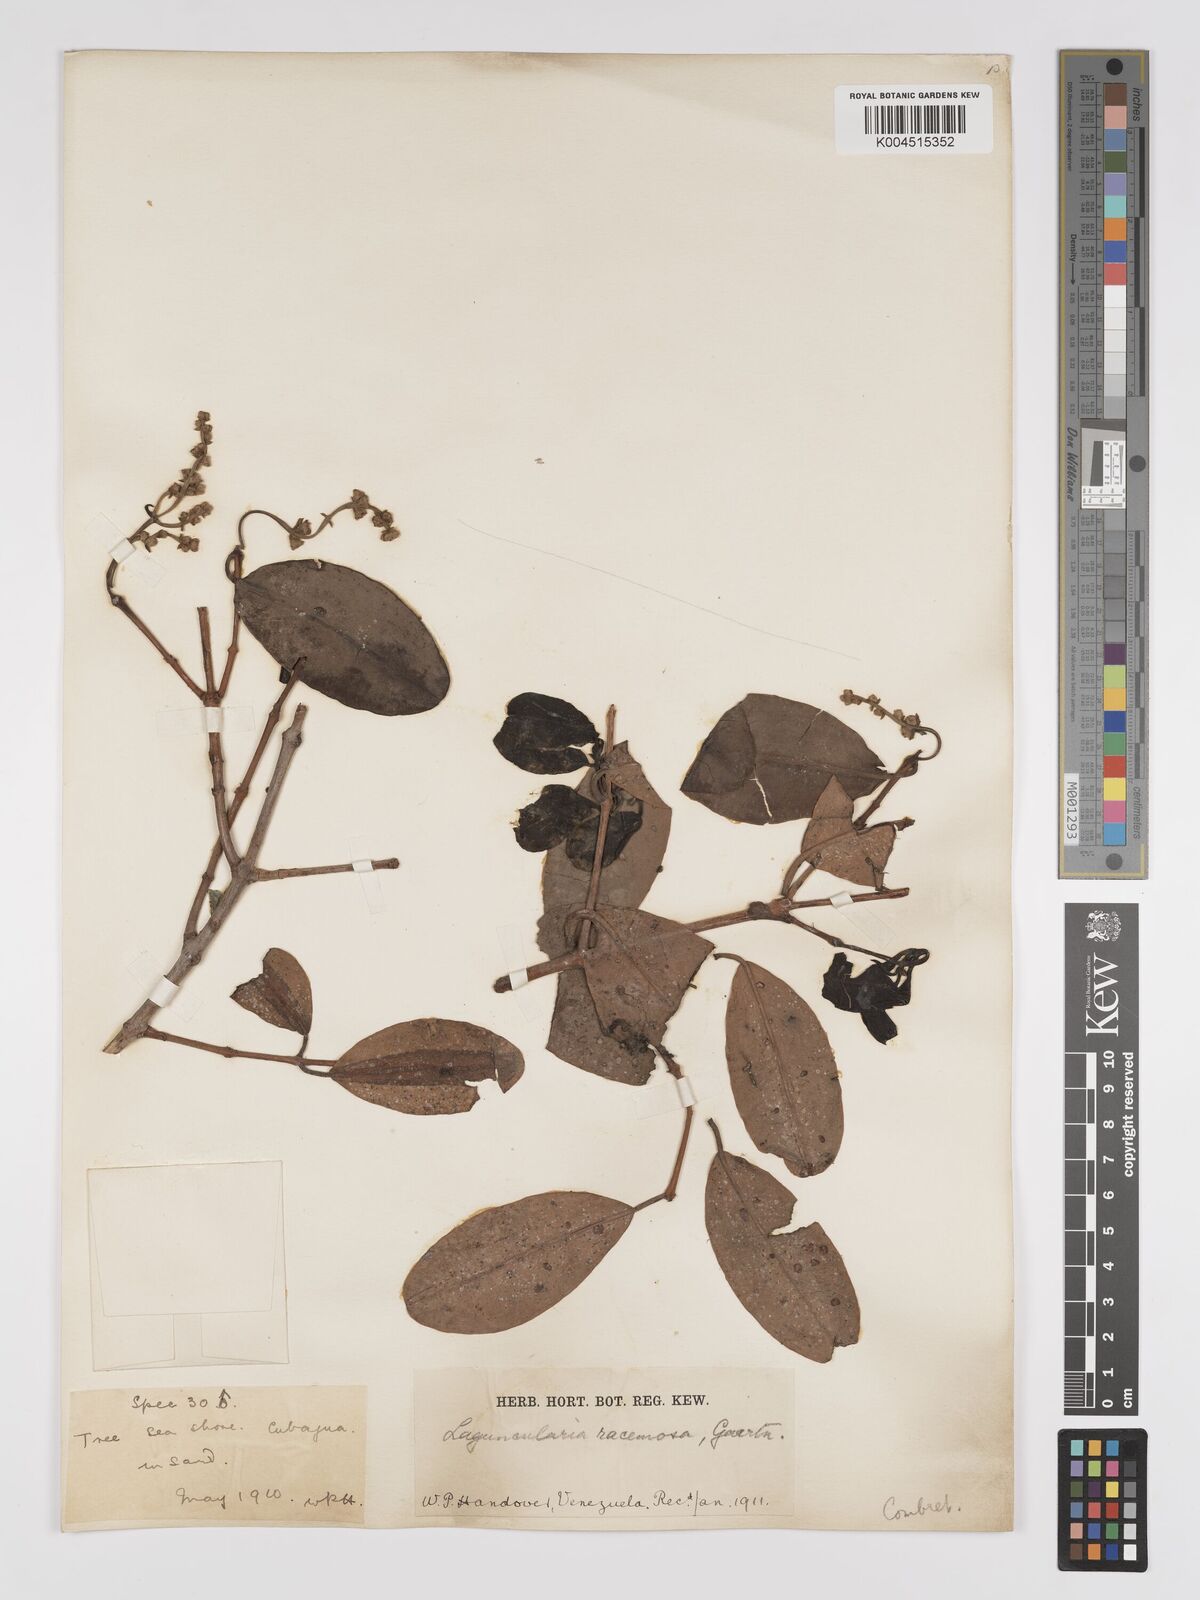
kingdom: Plantae
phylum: Tracheophyta
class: Magnoliopsida
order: Myrtales
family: Combretaceae
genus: Laguncularia
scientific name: Laguncularia racemosa
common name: White mangrove
